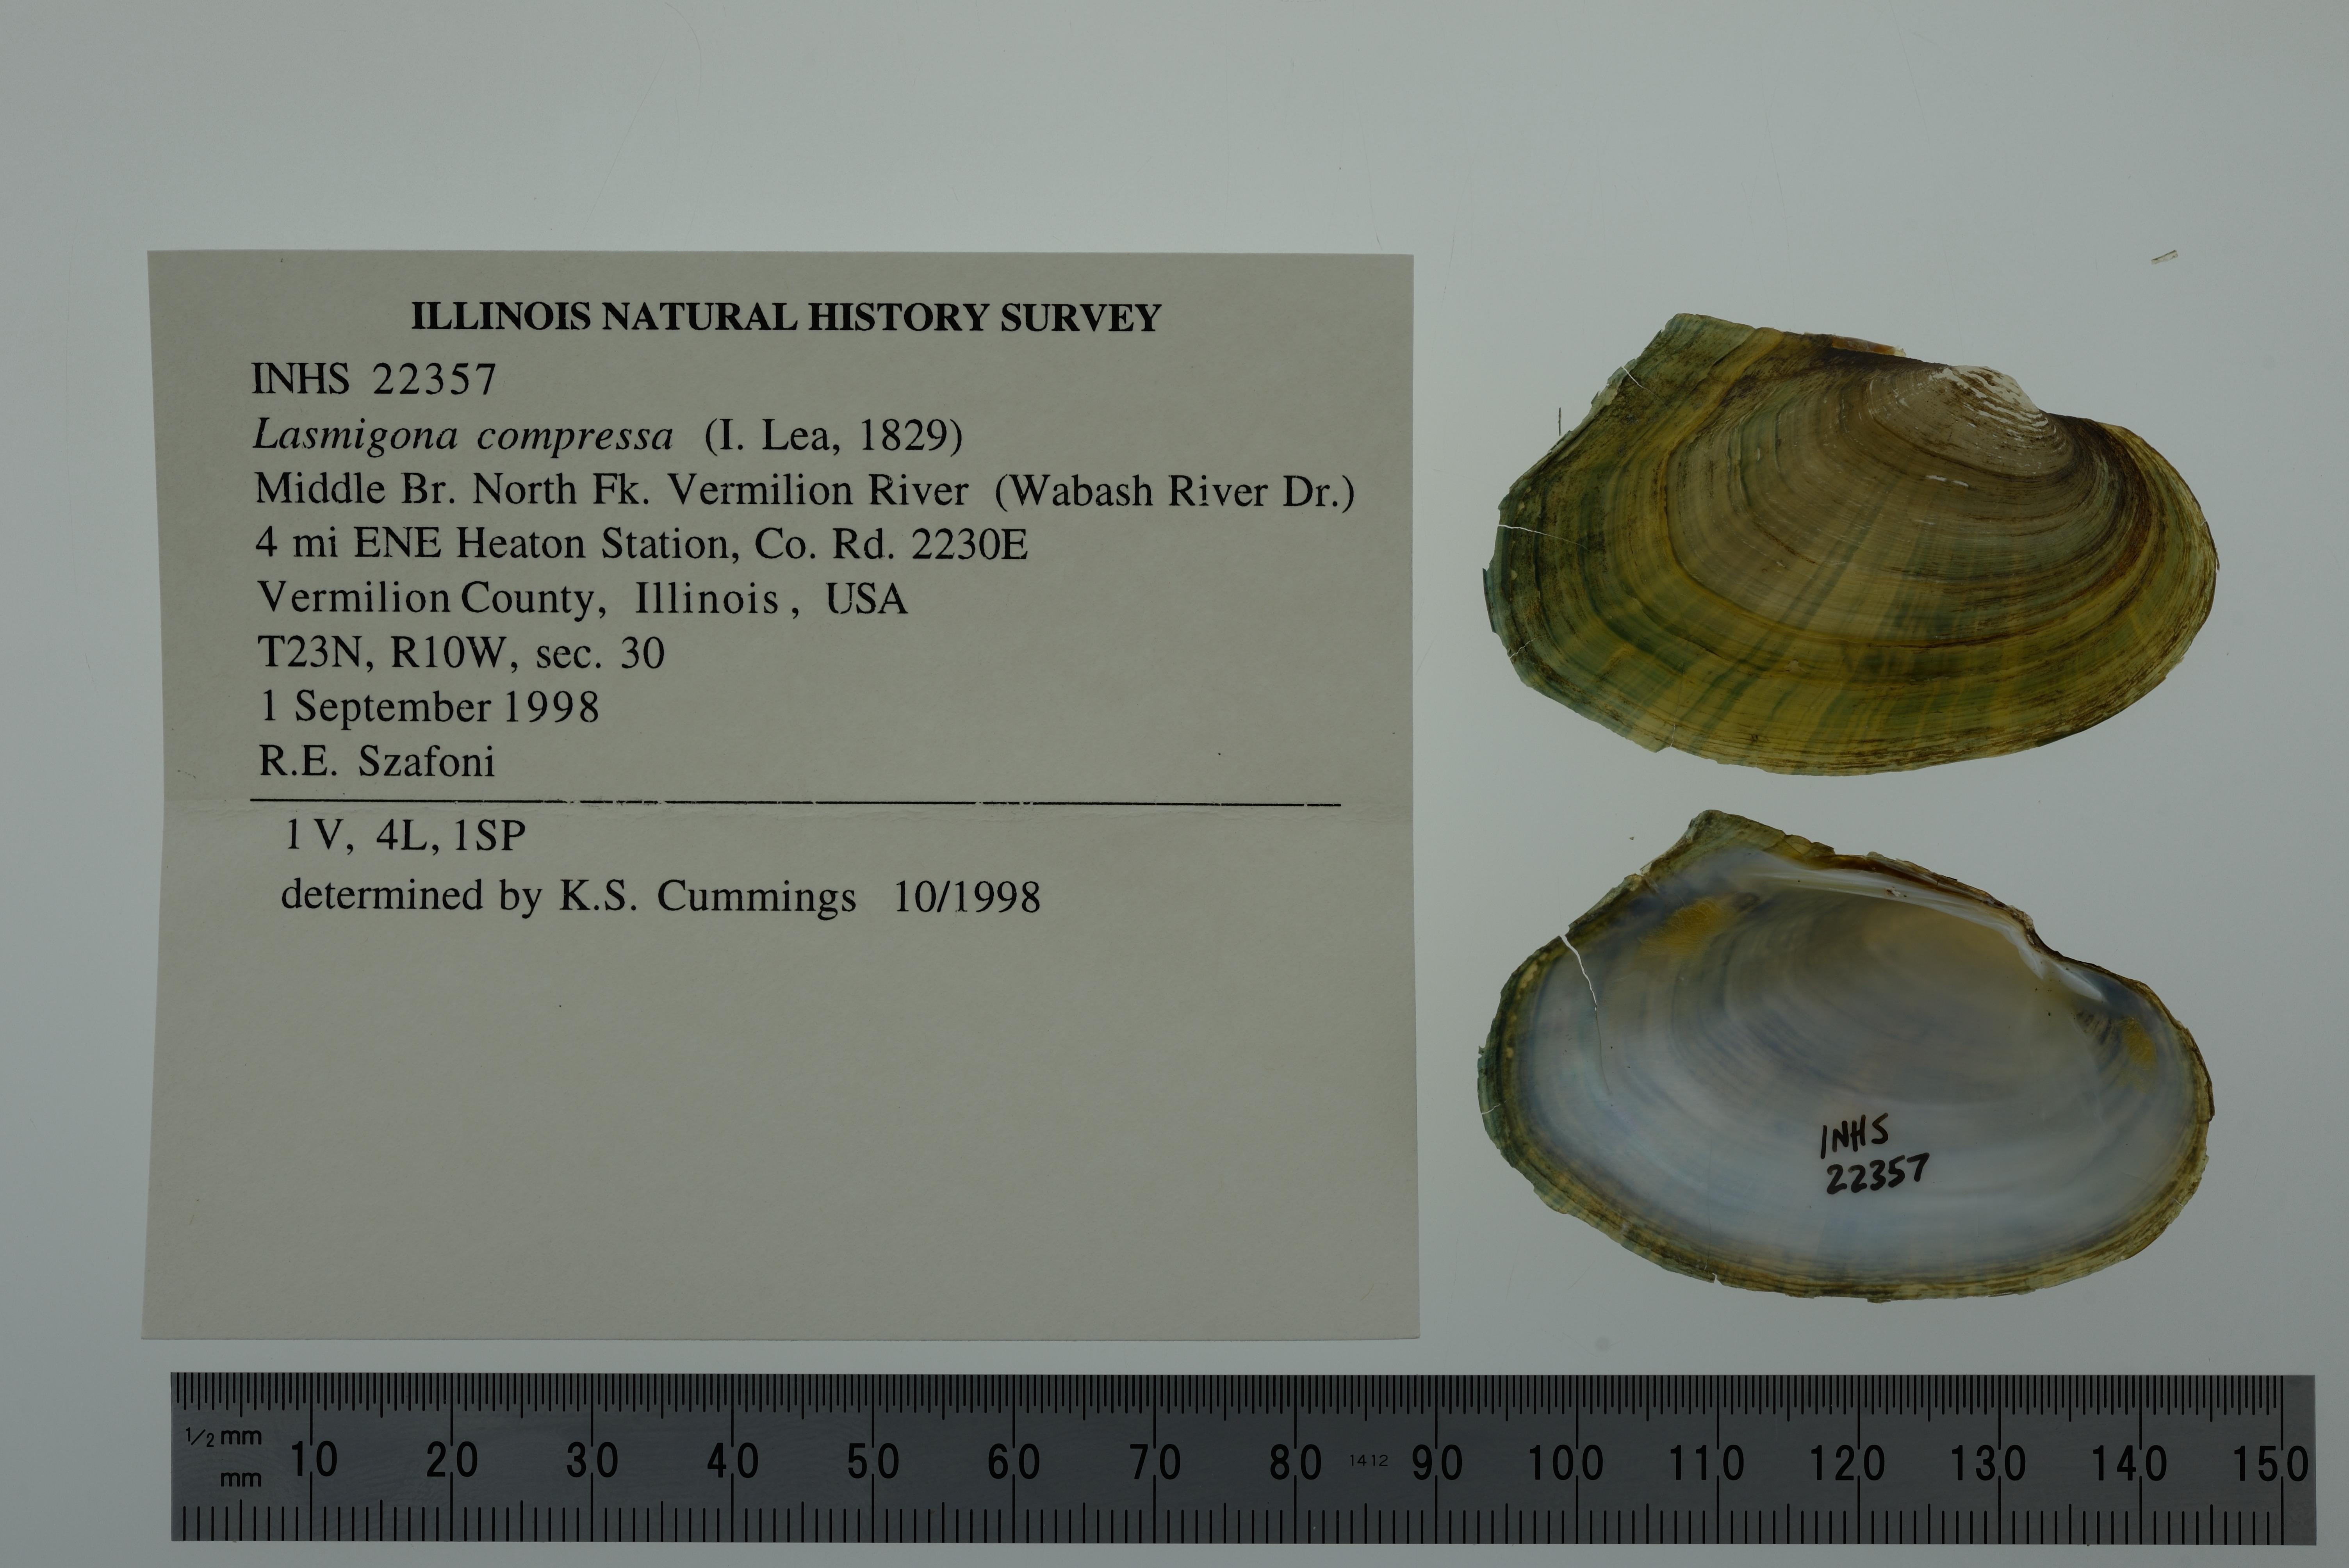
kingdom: Animalia
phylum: Mollusca
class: Bivalvia
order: Unionida
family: Unionidae
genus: Lasmigona
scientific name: Lasmigona compressa
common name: Creek heelsplitter
